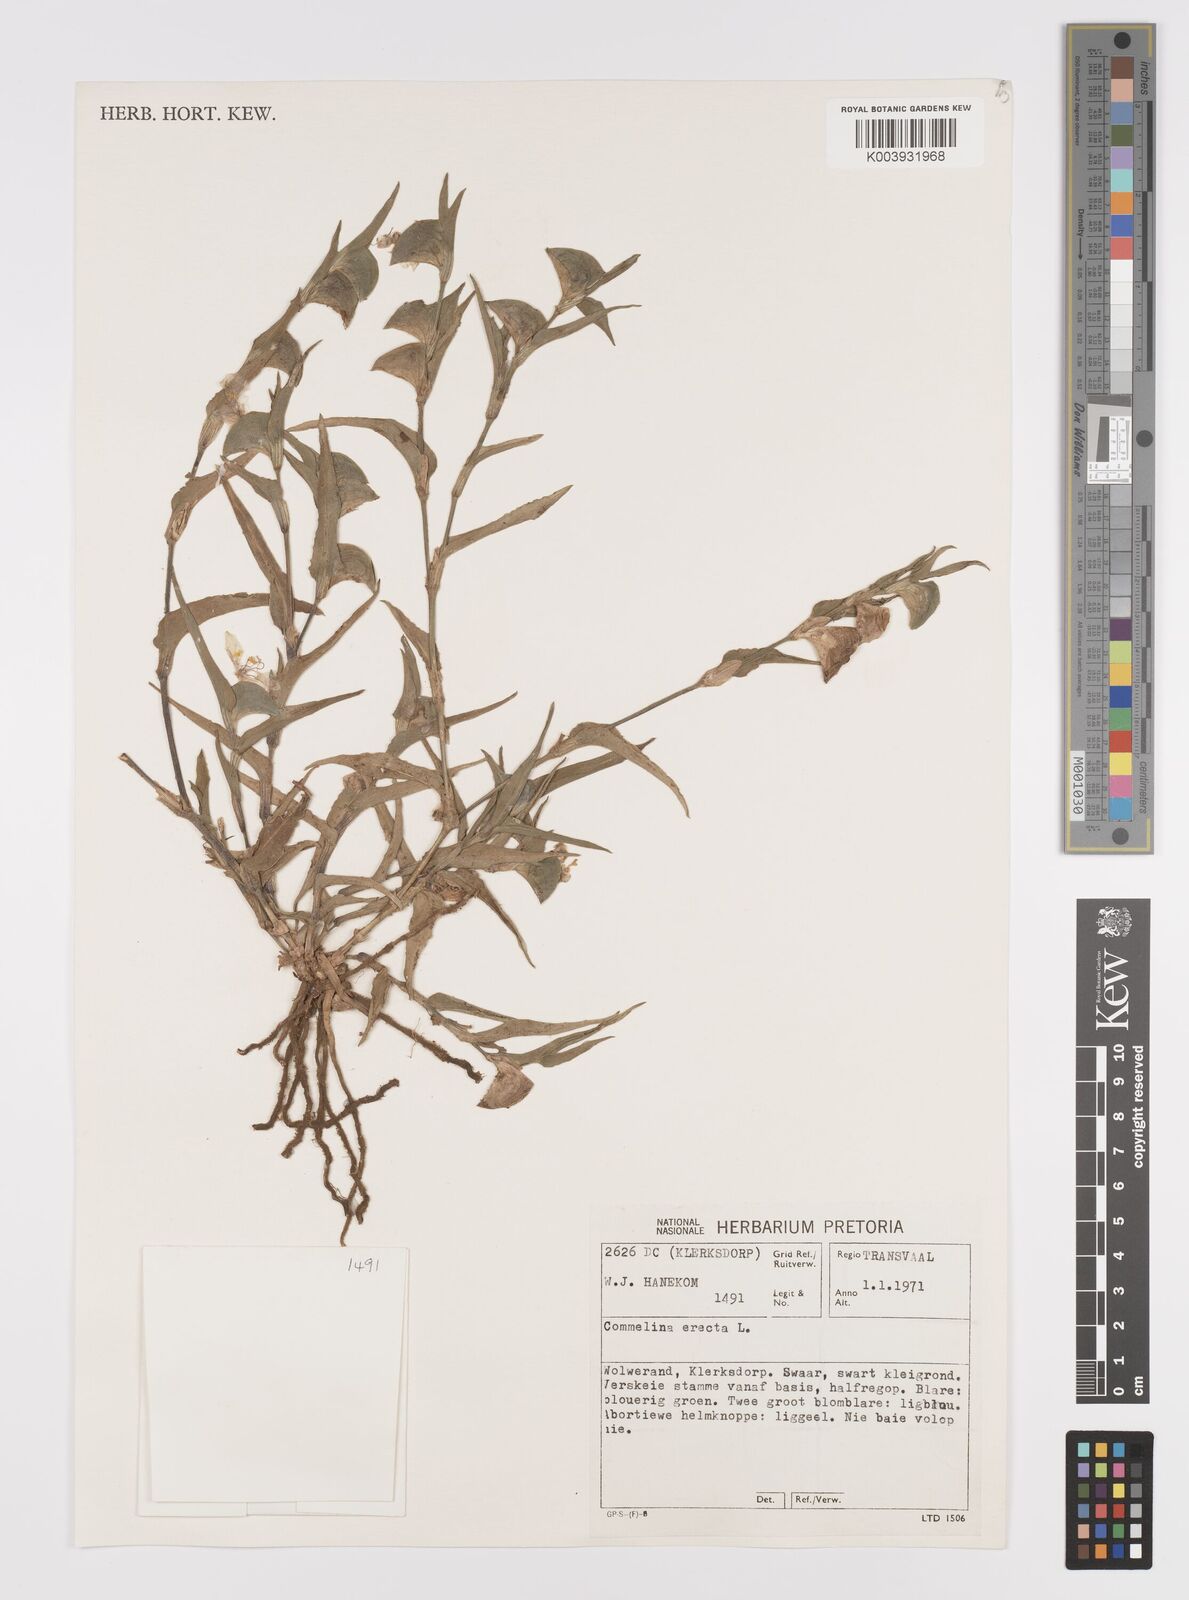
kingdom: Plantae
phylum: Tracheophyta
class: Liliopsida
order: Commelinales
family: Commelinaceae
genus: Commelina
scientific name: Commelina erecta
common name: Blousel blommetjie
